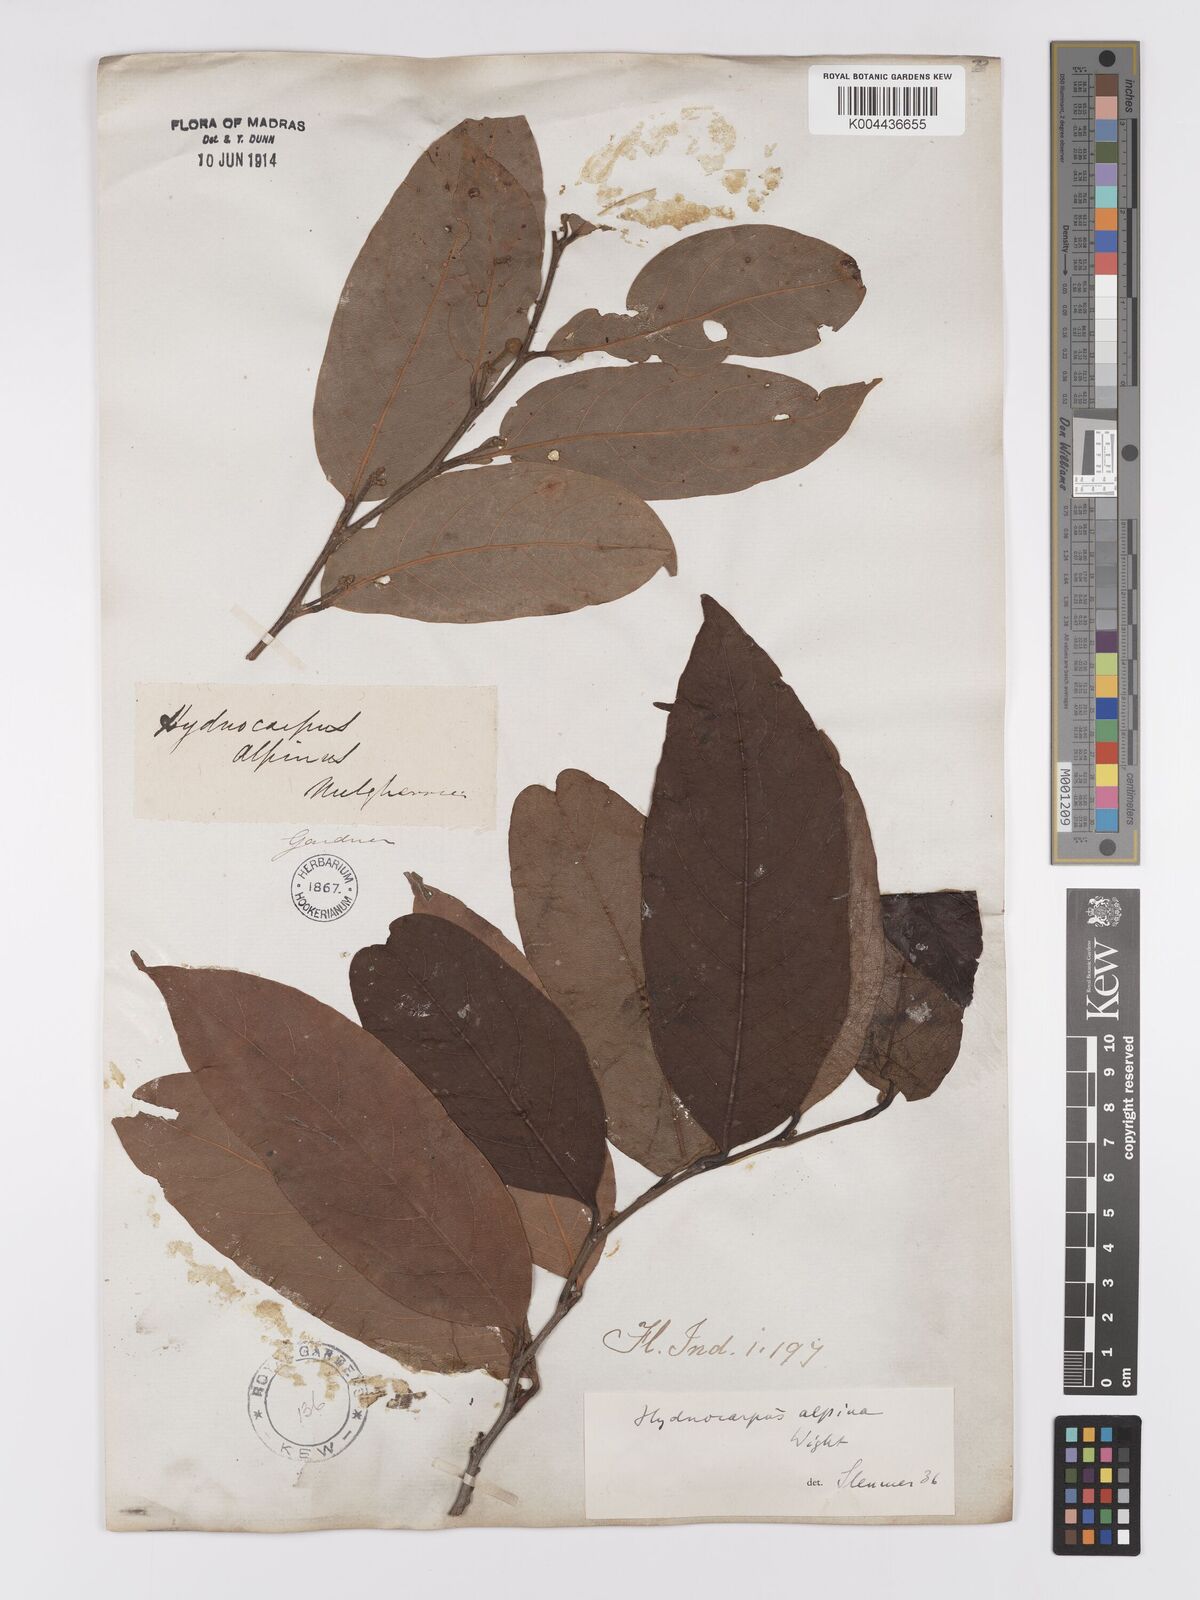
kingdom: Plantae
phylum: Tracheophyta
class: Magnoliopsida
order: Malpighiales
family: Achariaceae
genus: Hydnocarpus
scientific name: Hydnocarpus alpinus
